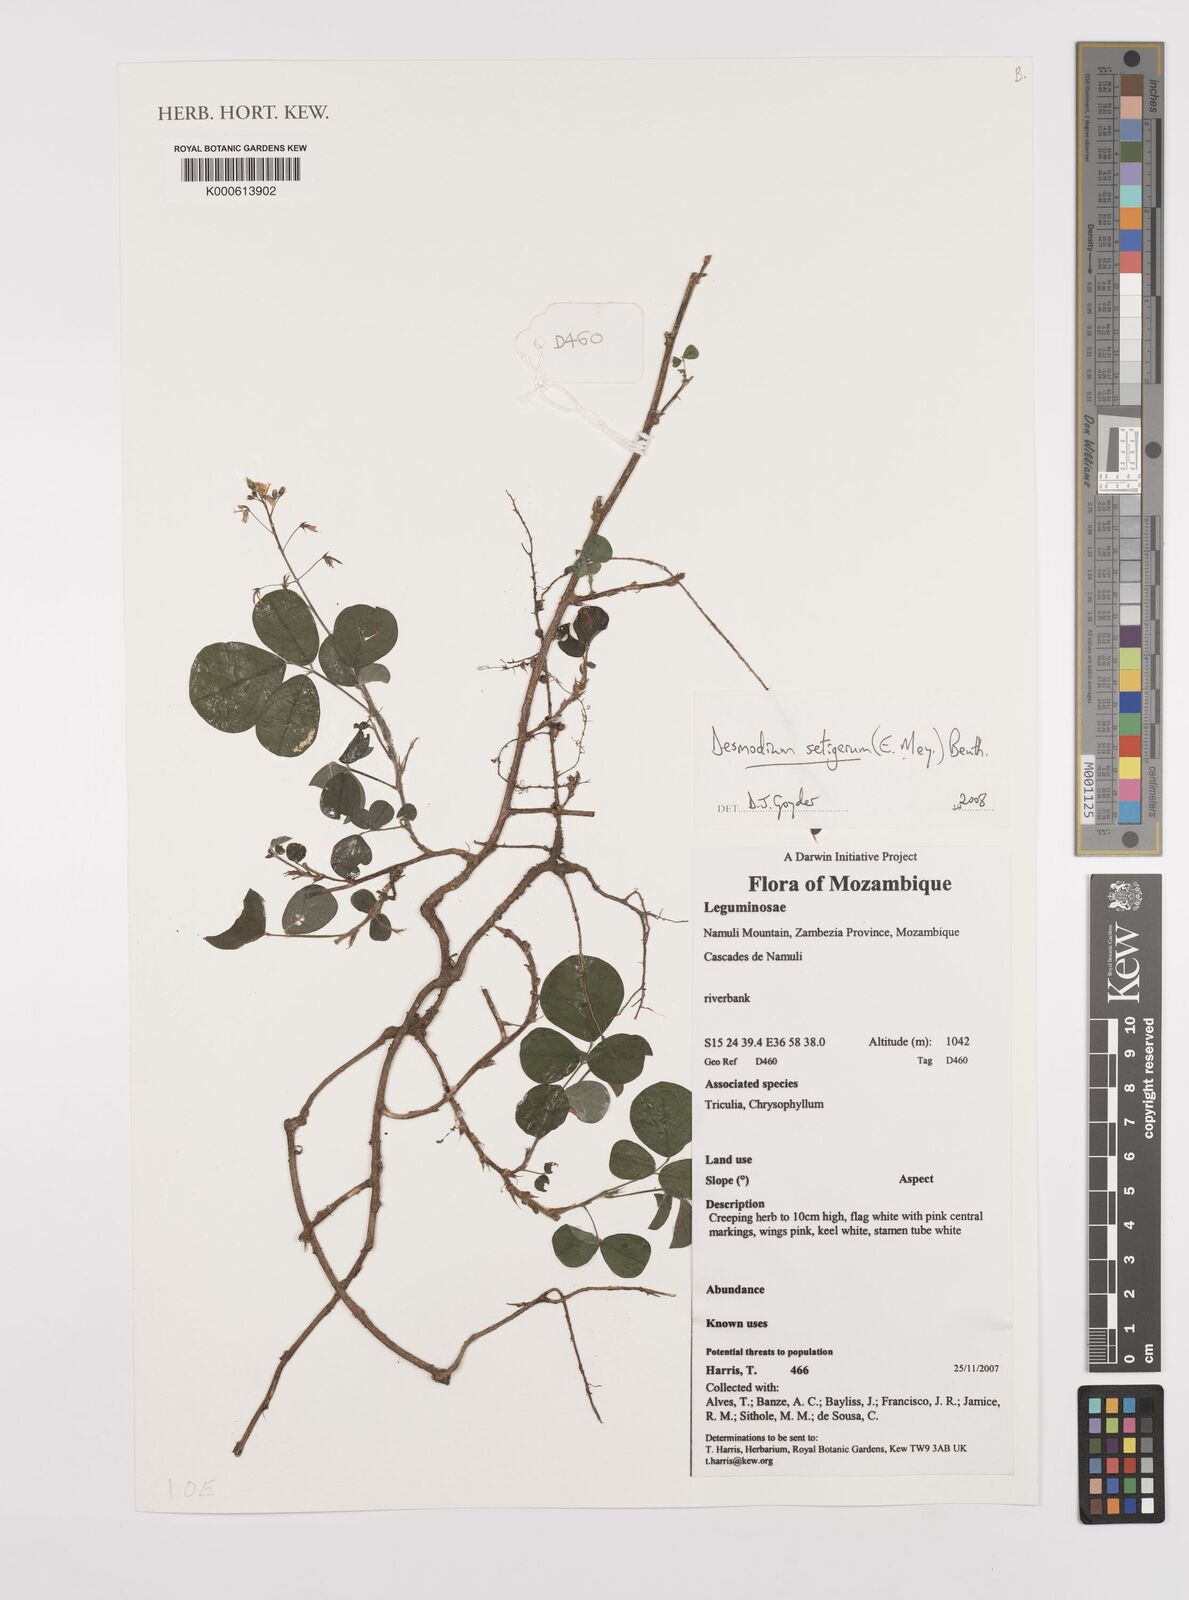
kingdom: Plantae
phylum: Tracheophyta
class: Magnoliopsida
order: Fabales
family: Fabaceae
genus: Desmodium
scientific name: Desmodium
